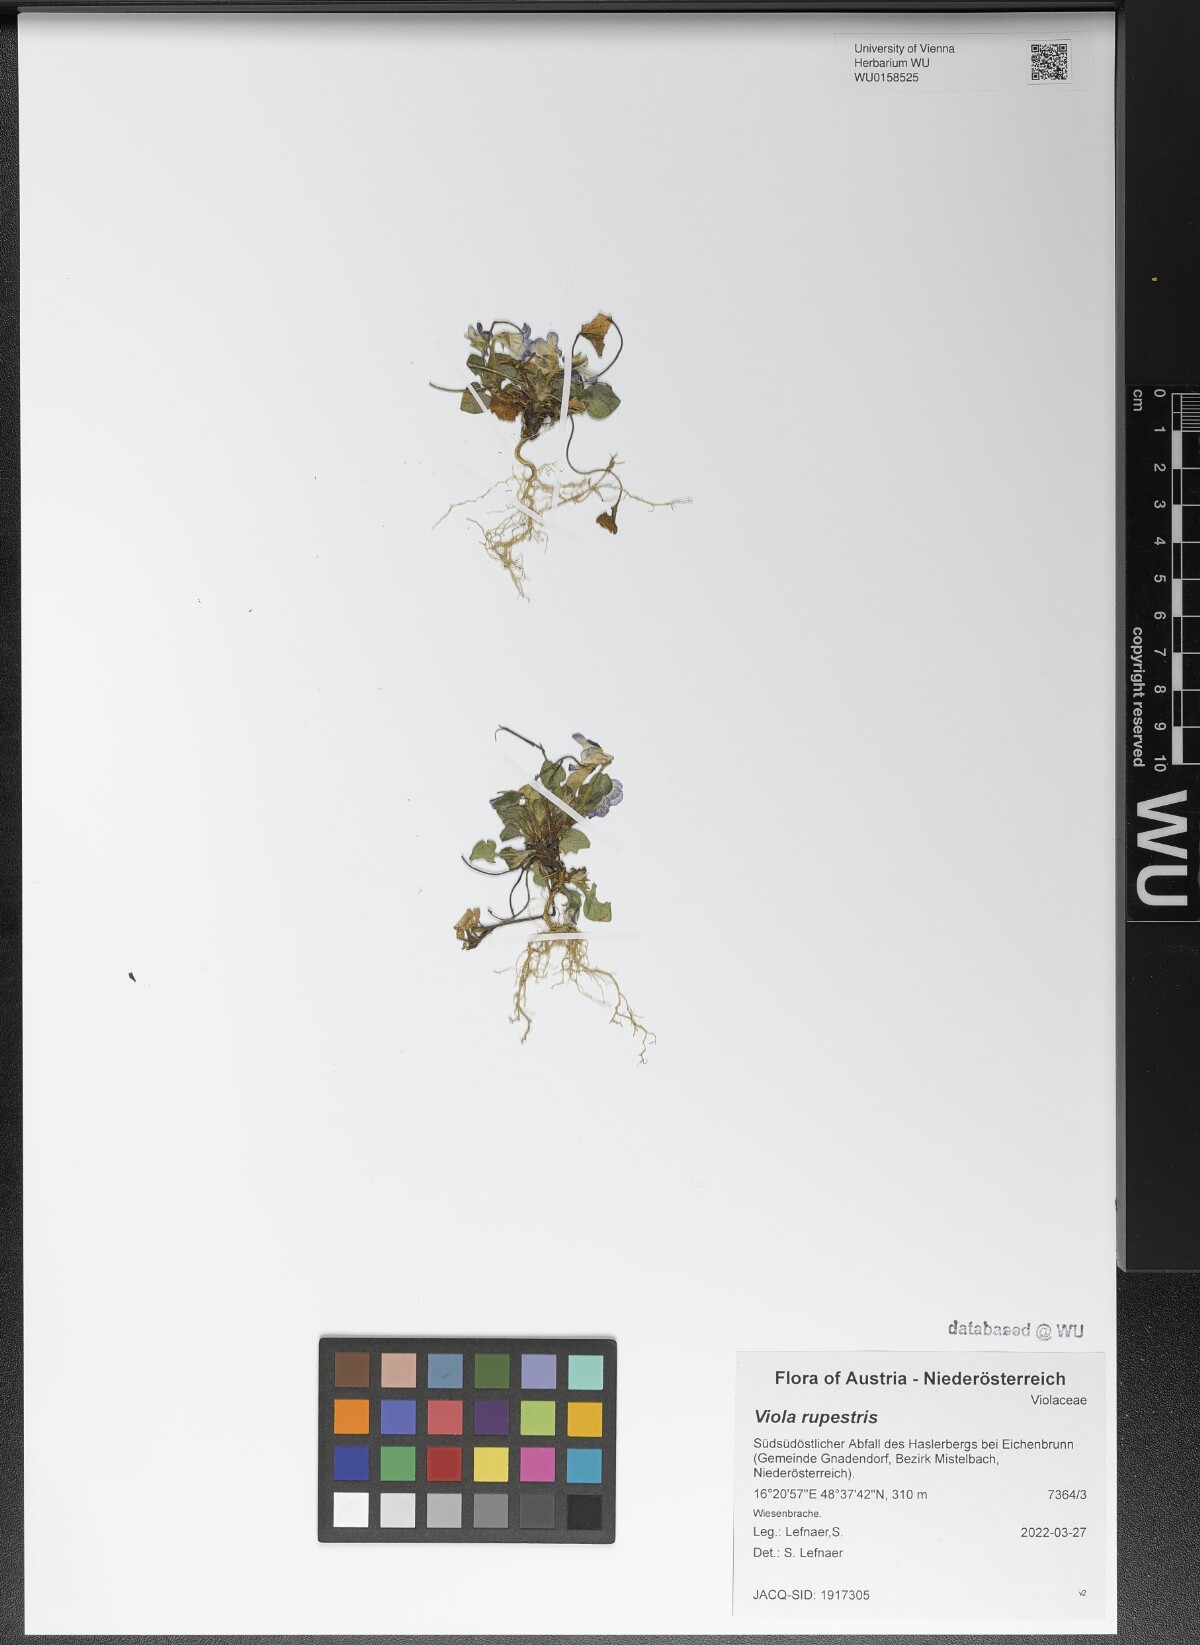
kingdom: Plantae
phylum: Tracheophyta
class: Magnoliopsida
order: Malpighiales
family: Violaceae
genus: Viola
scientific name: Viola rupestris
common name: Teesdale violet
